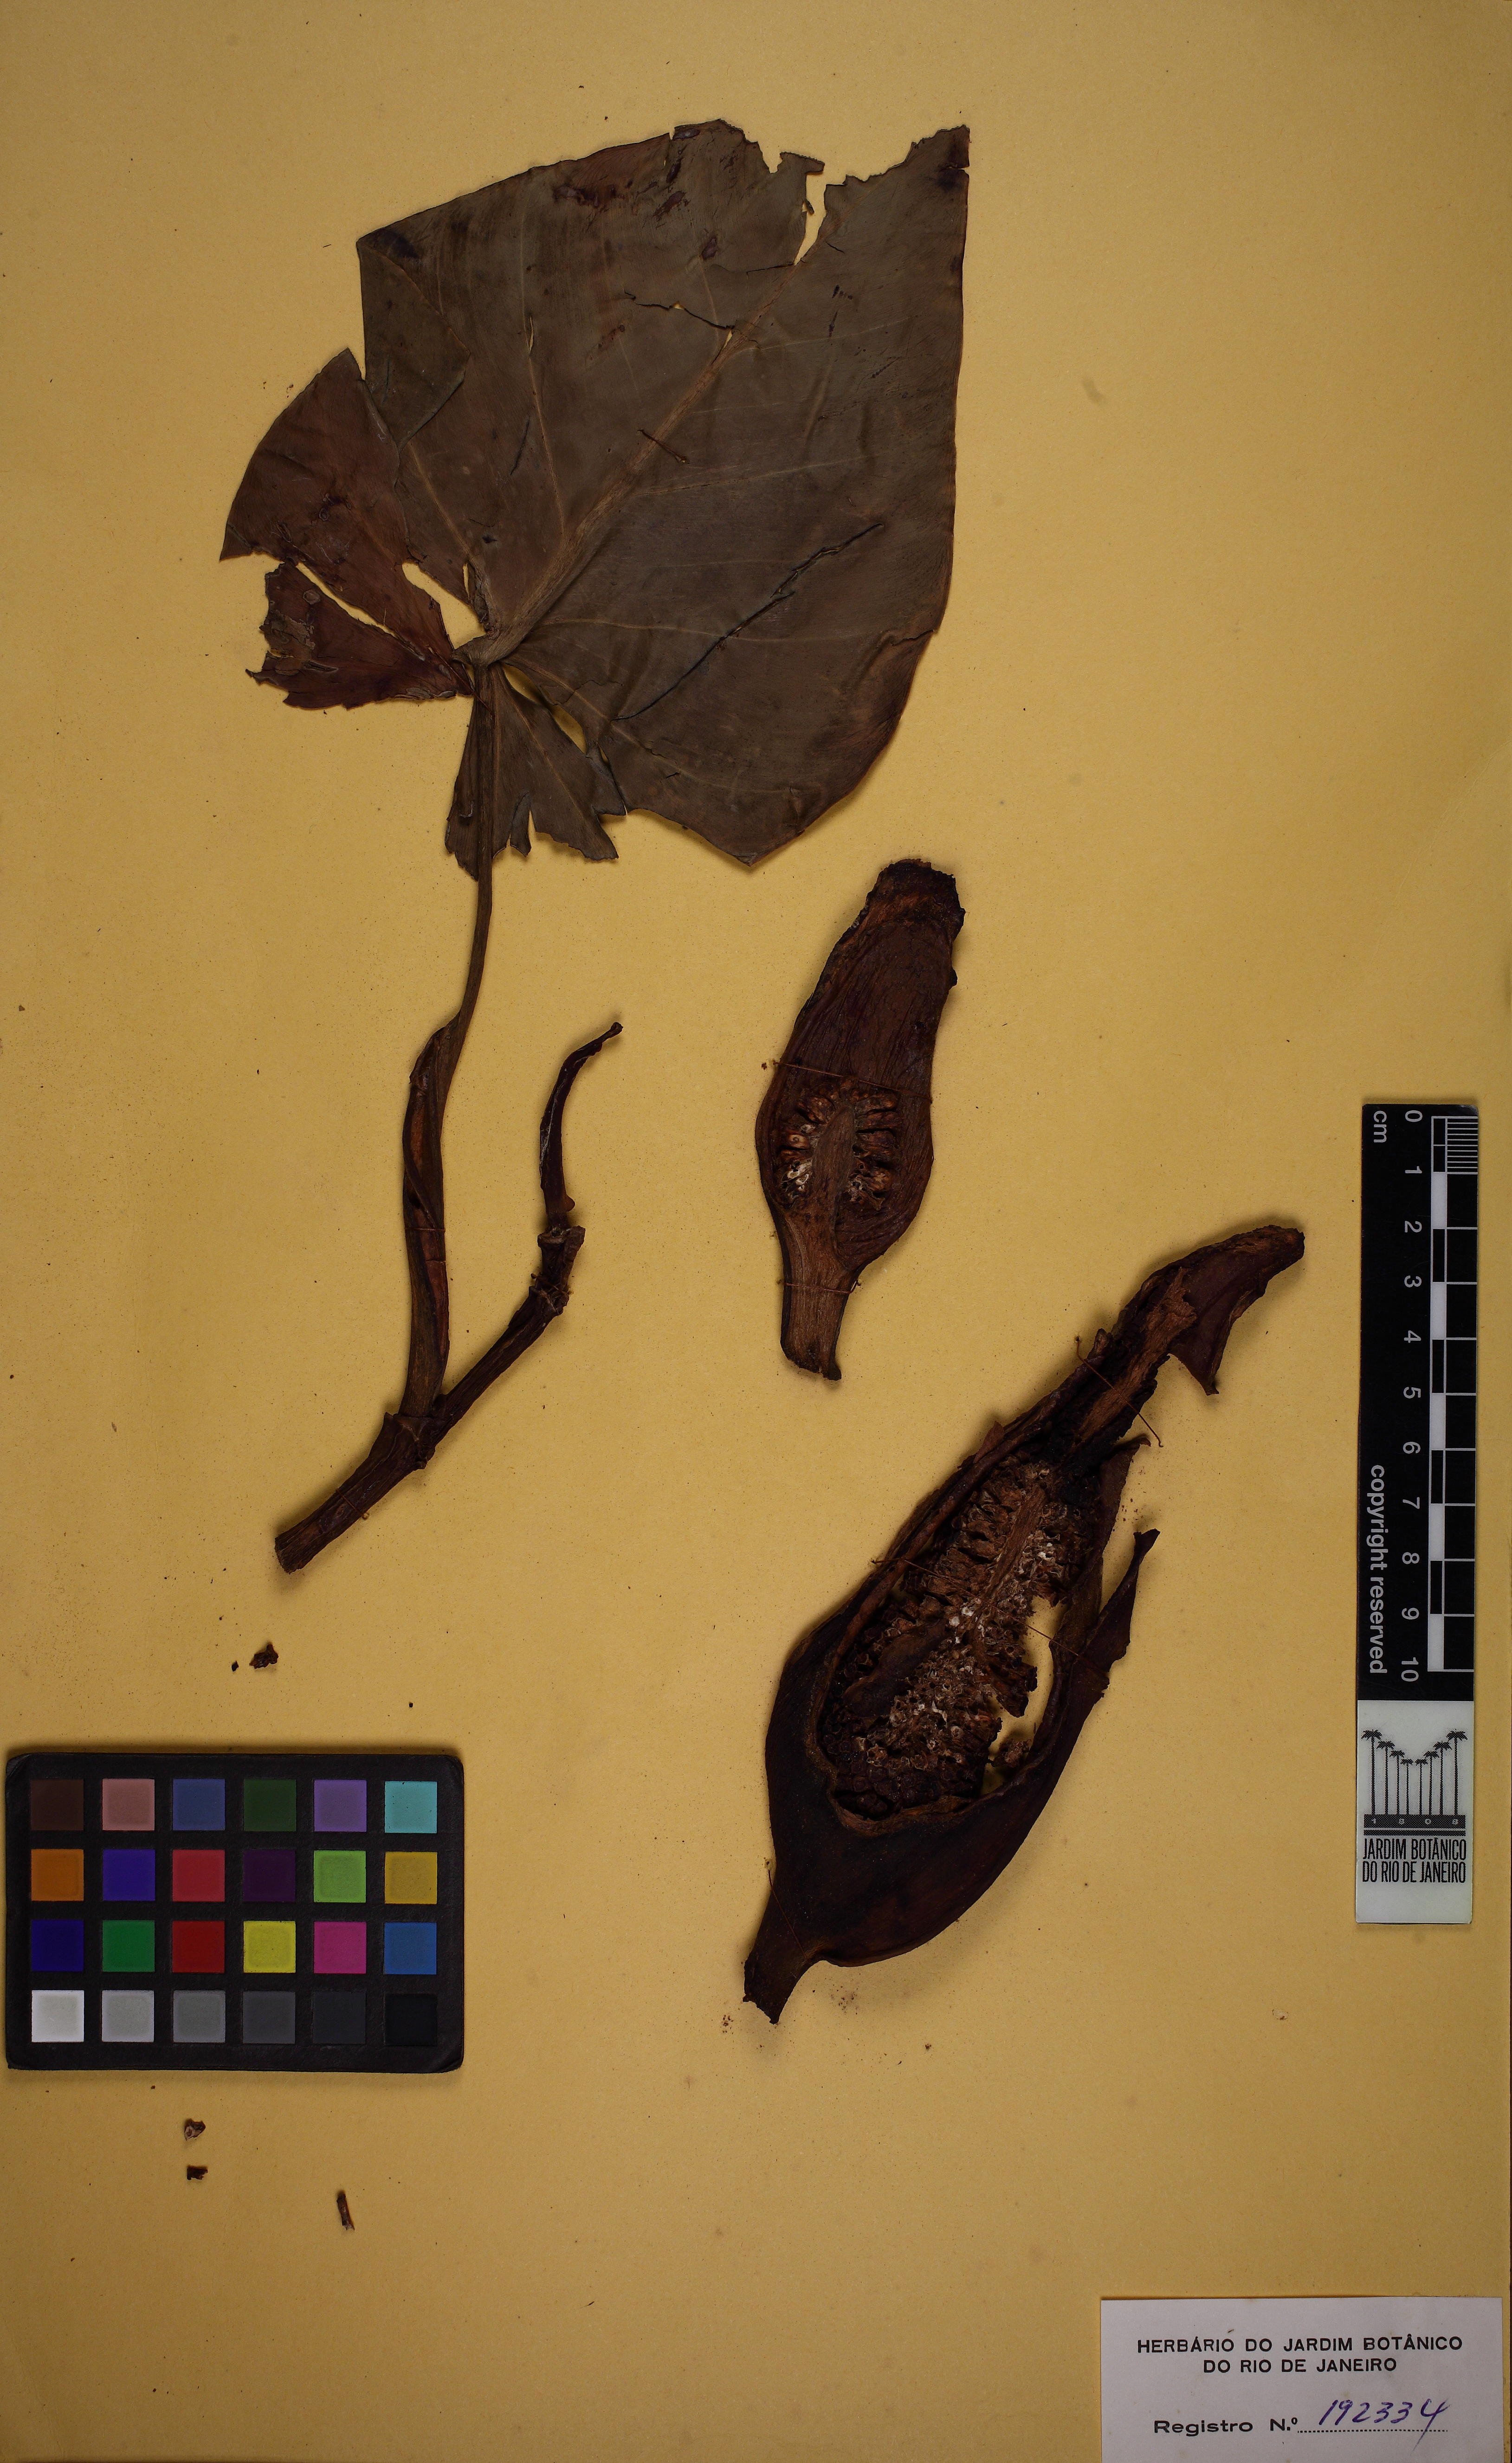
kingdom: Plantae
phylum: Tracheophyta
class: Liliopsida
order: Alismatales
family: Araceae
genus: Philodendron
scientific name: Philodendron hederaceum
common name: Vilevine
